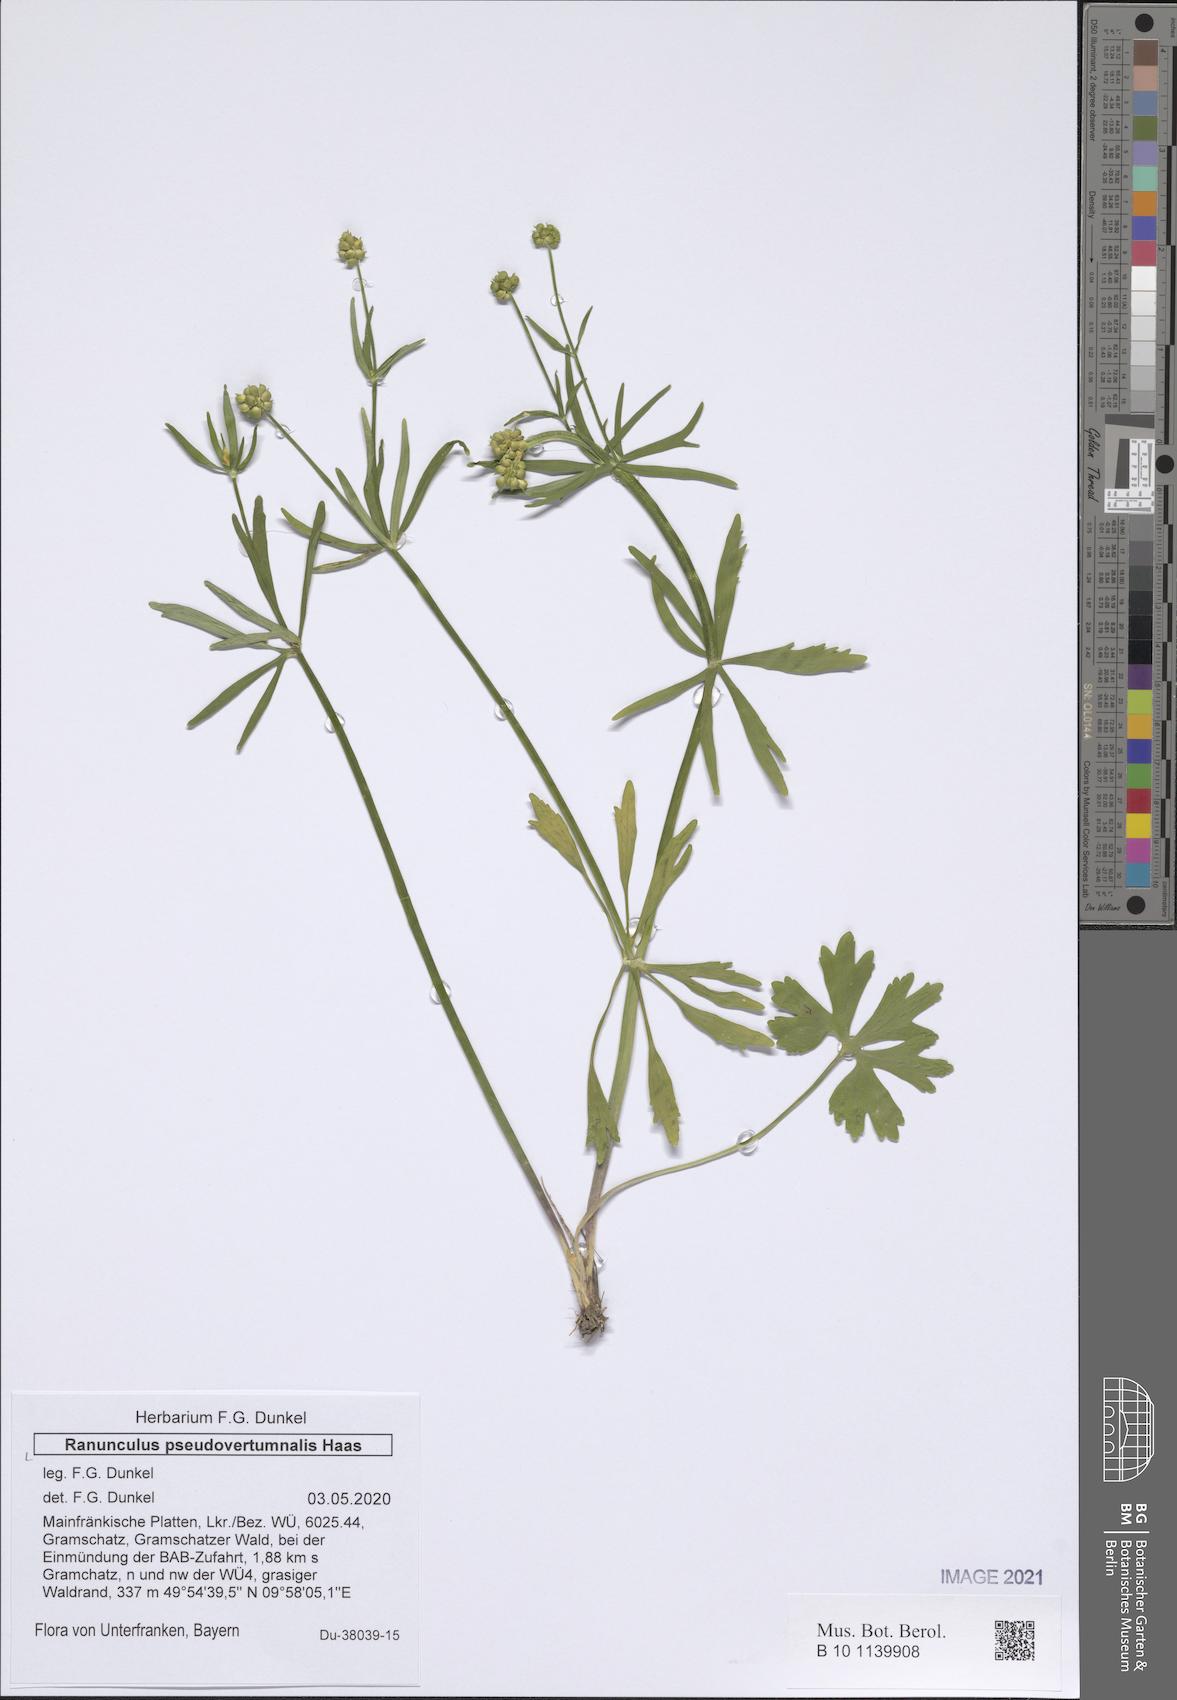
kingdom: Plantae
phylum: Tracheophyta
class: Magnoliopsida
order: Ranunculales
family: Ranunculaceae
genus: Ranunculus
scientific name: Ranunculus pseudovertumnalis
